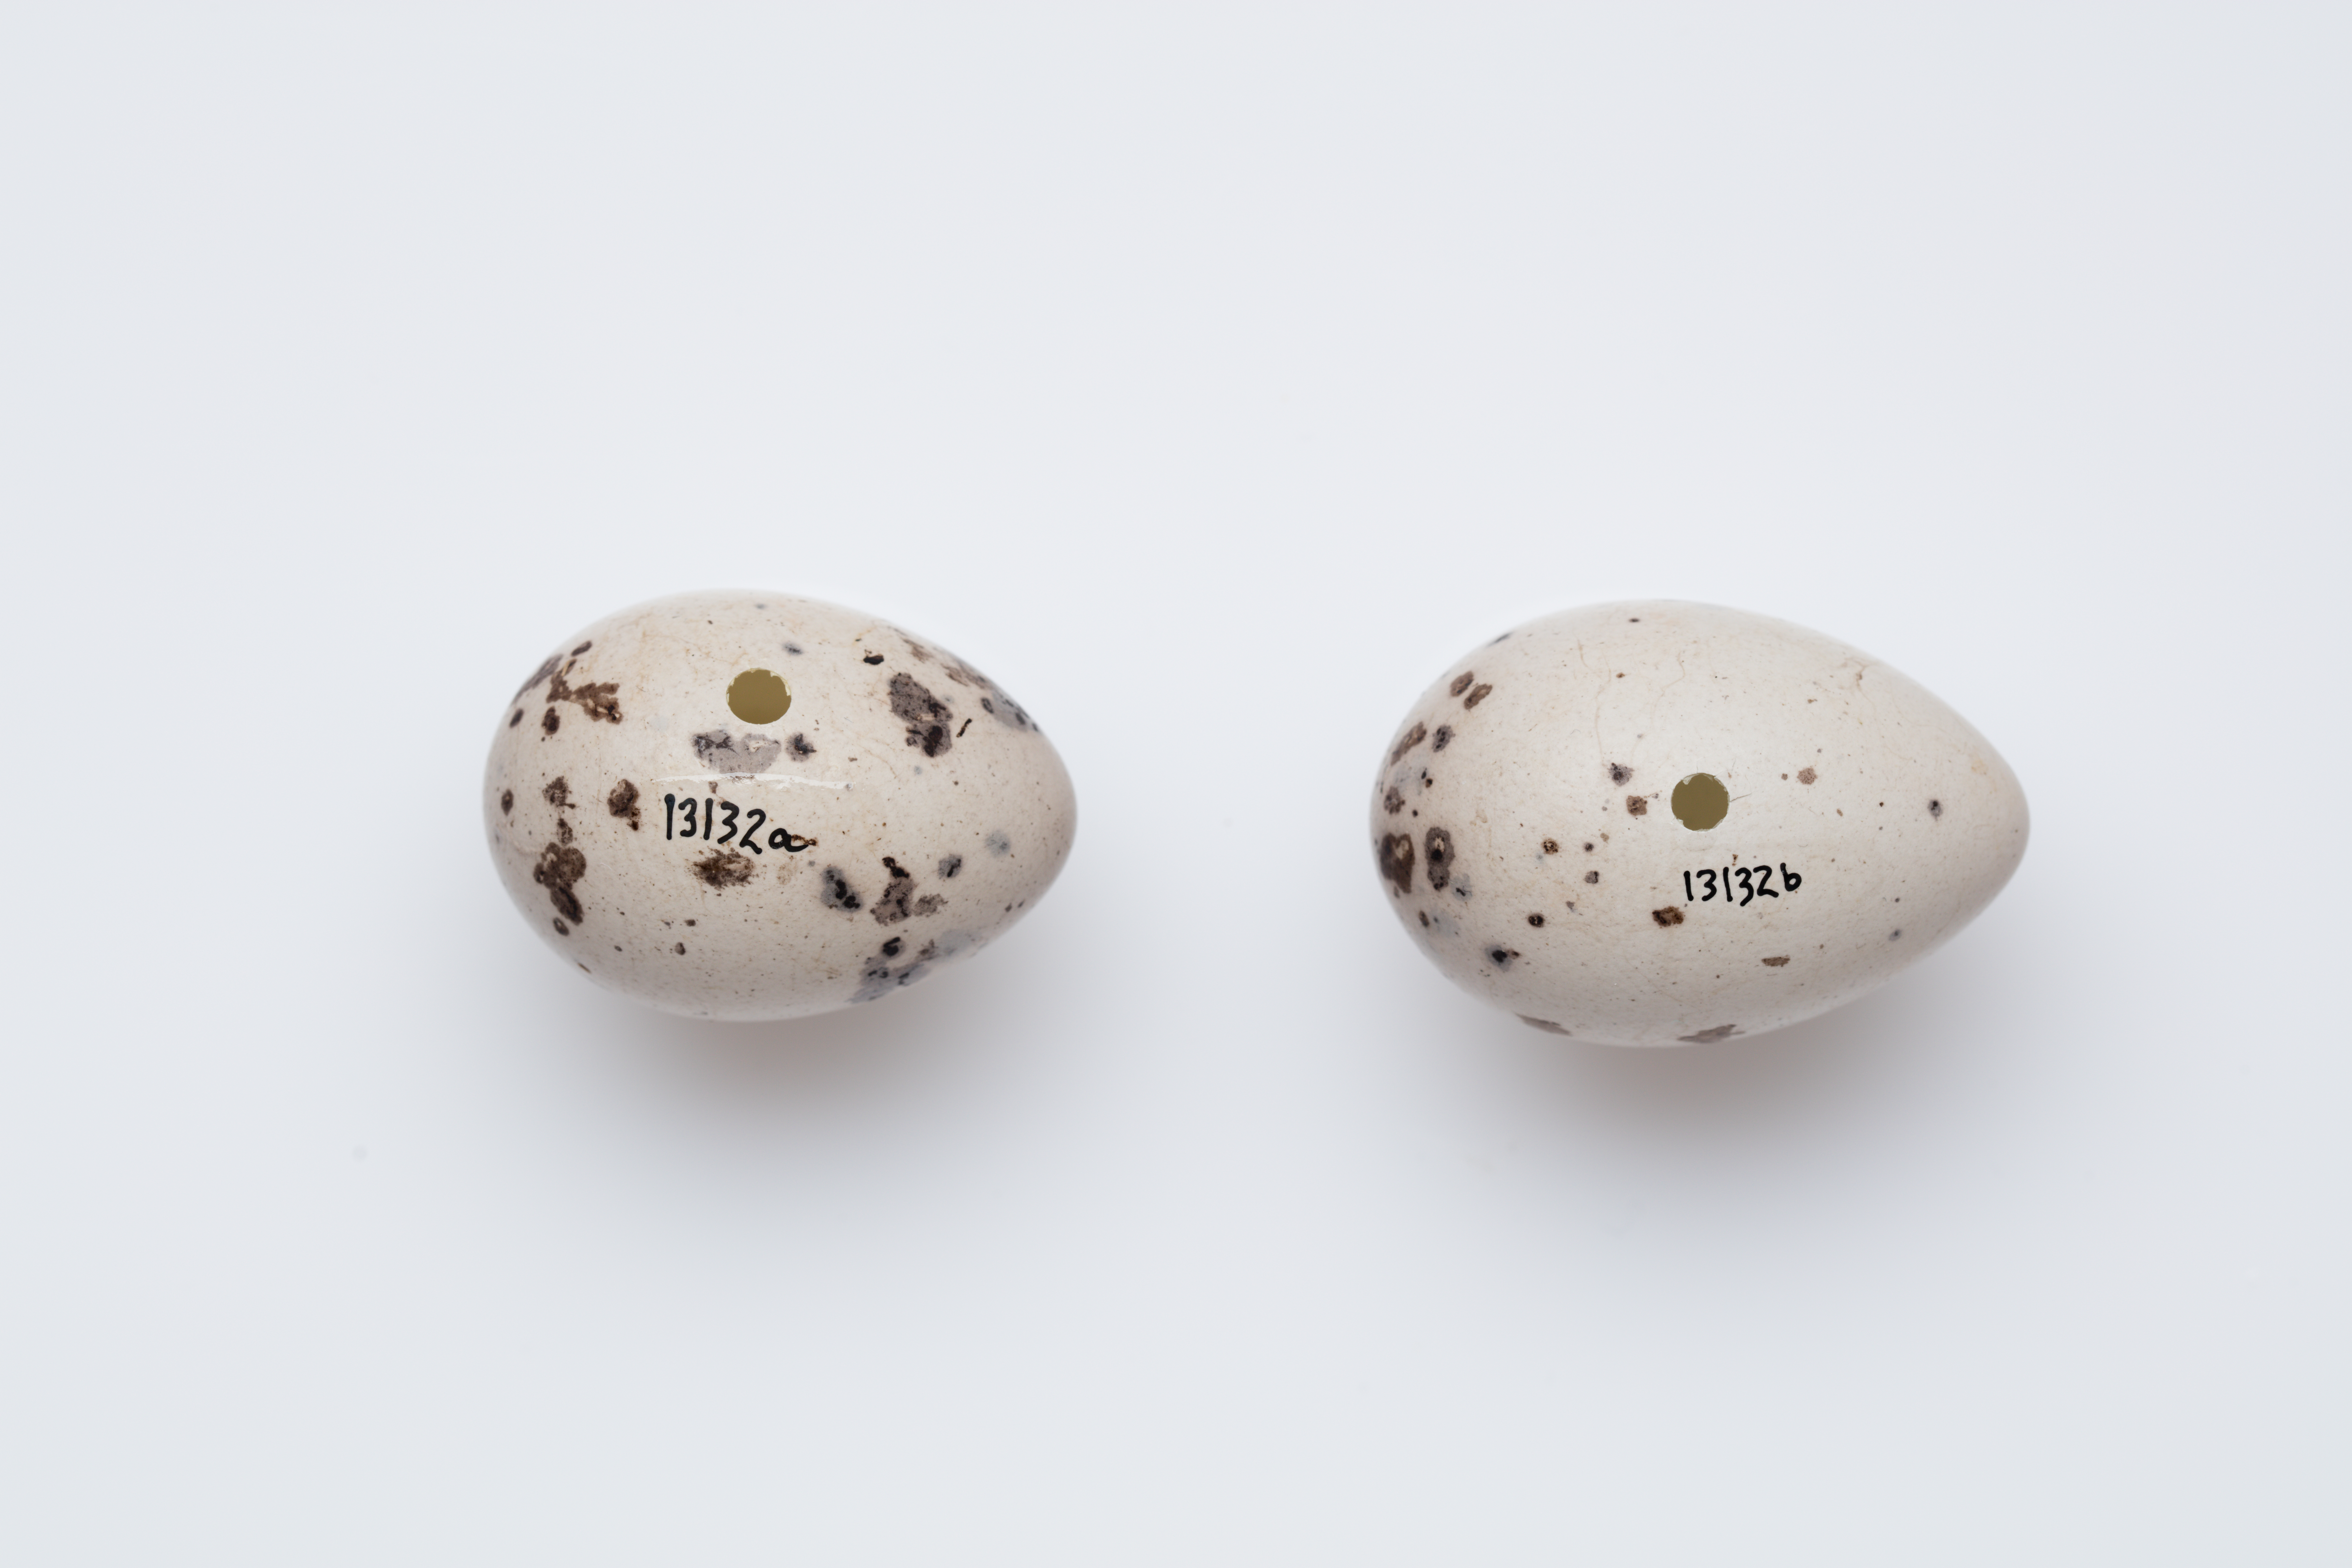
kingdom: Animalia
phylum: Chordata
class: Aves
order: Passeriformes
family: Callaeatidae
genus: Callaeas
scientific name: Callaeas cinereus
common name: South island kokako
